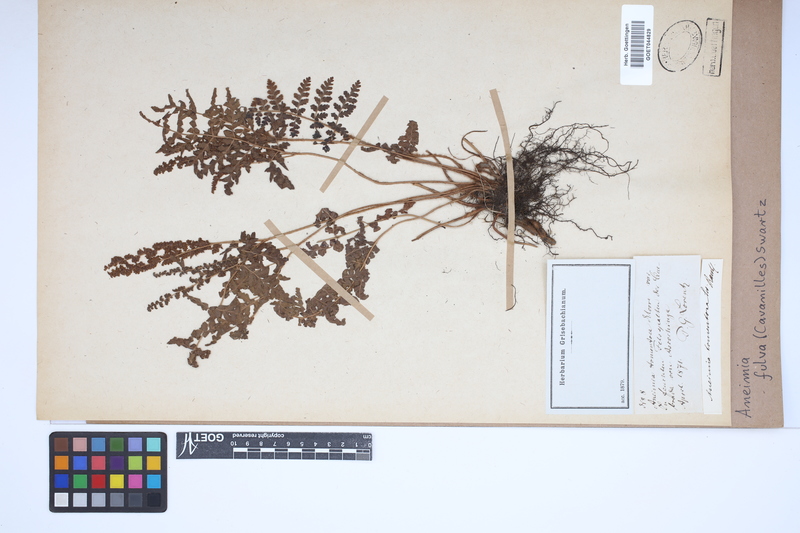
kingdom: Plantae
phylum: Tracheophyta
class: Polypodiopsida
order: Schizaeales
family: Anemiaceae
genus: Anemia
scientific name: Anemia ferruginea
